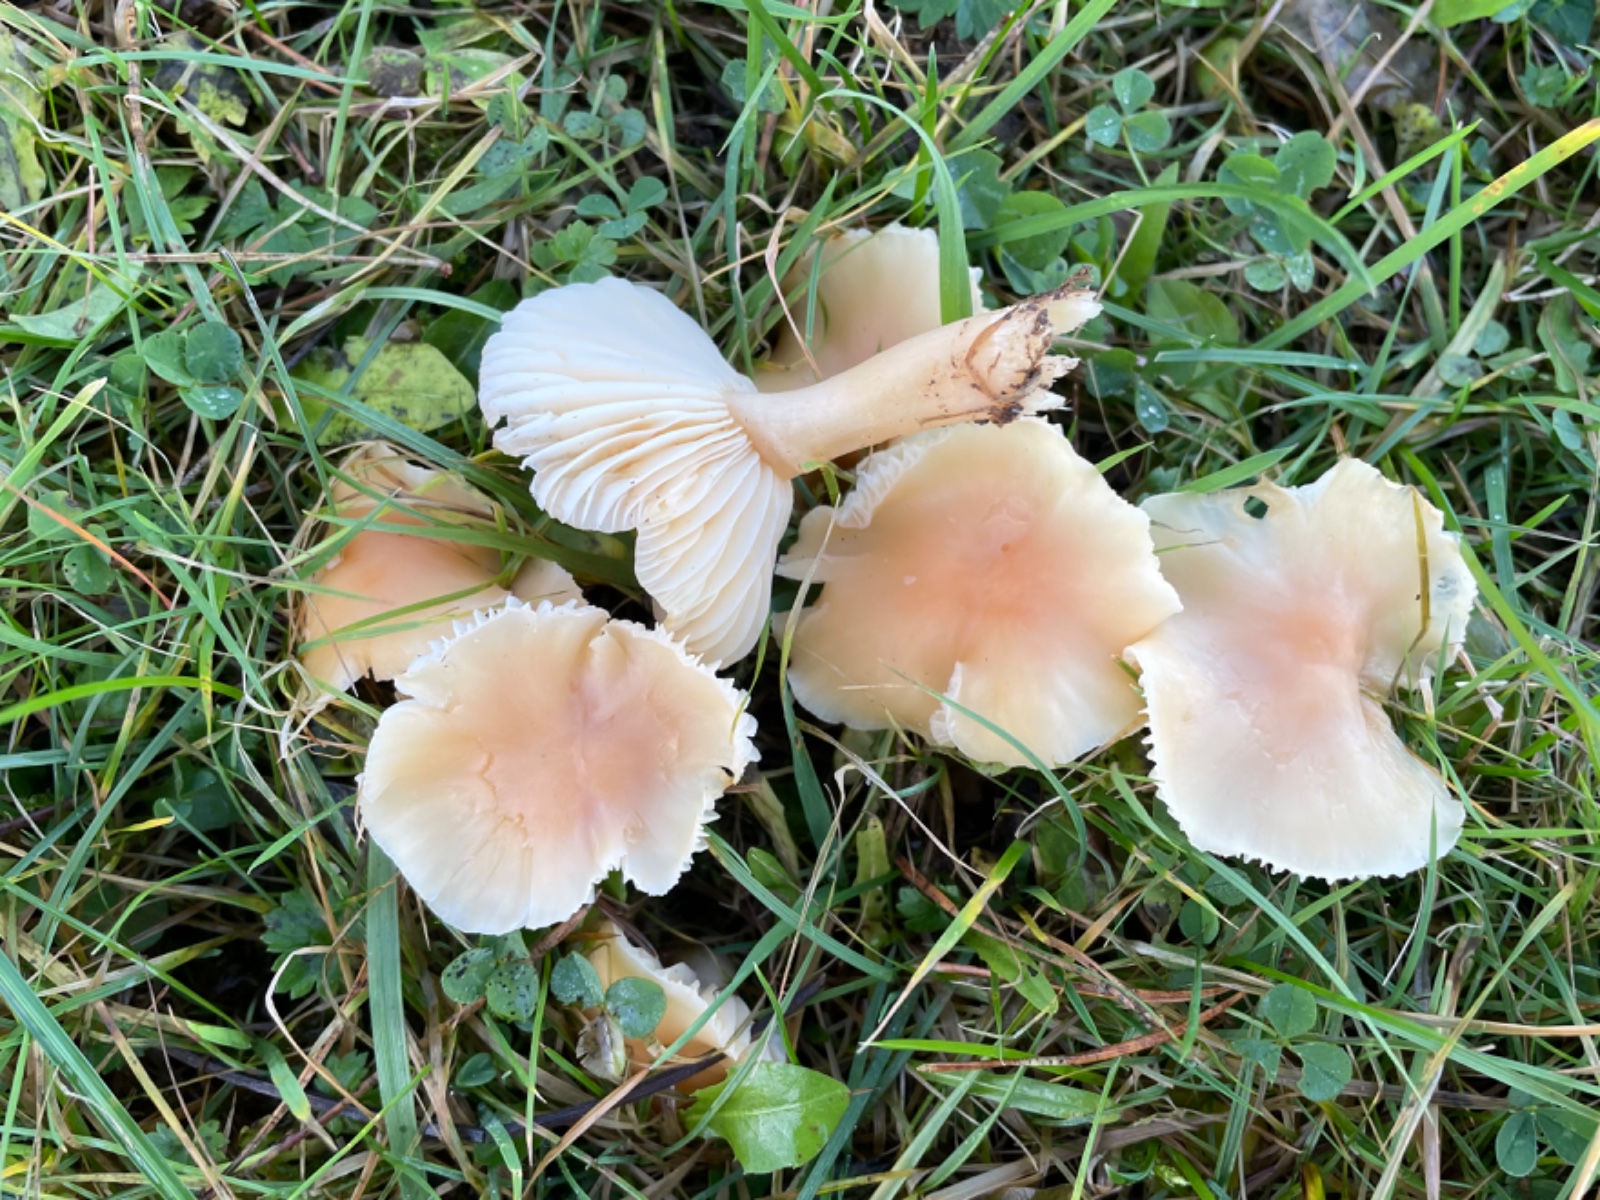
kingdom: Fungi
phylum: Basidiomycota
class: Agaricomycetes
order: Agaricales
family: Hygrophoraceae
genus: Cuphophyllus
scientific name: Cuphophyllus pratensis
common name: eng-vokshat
